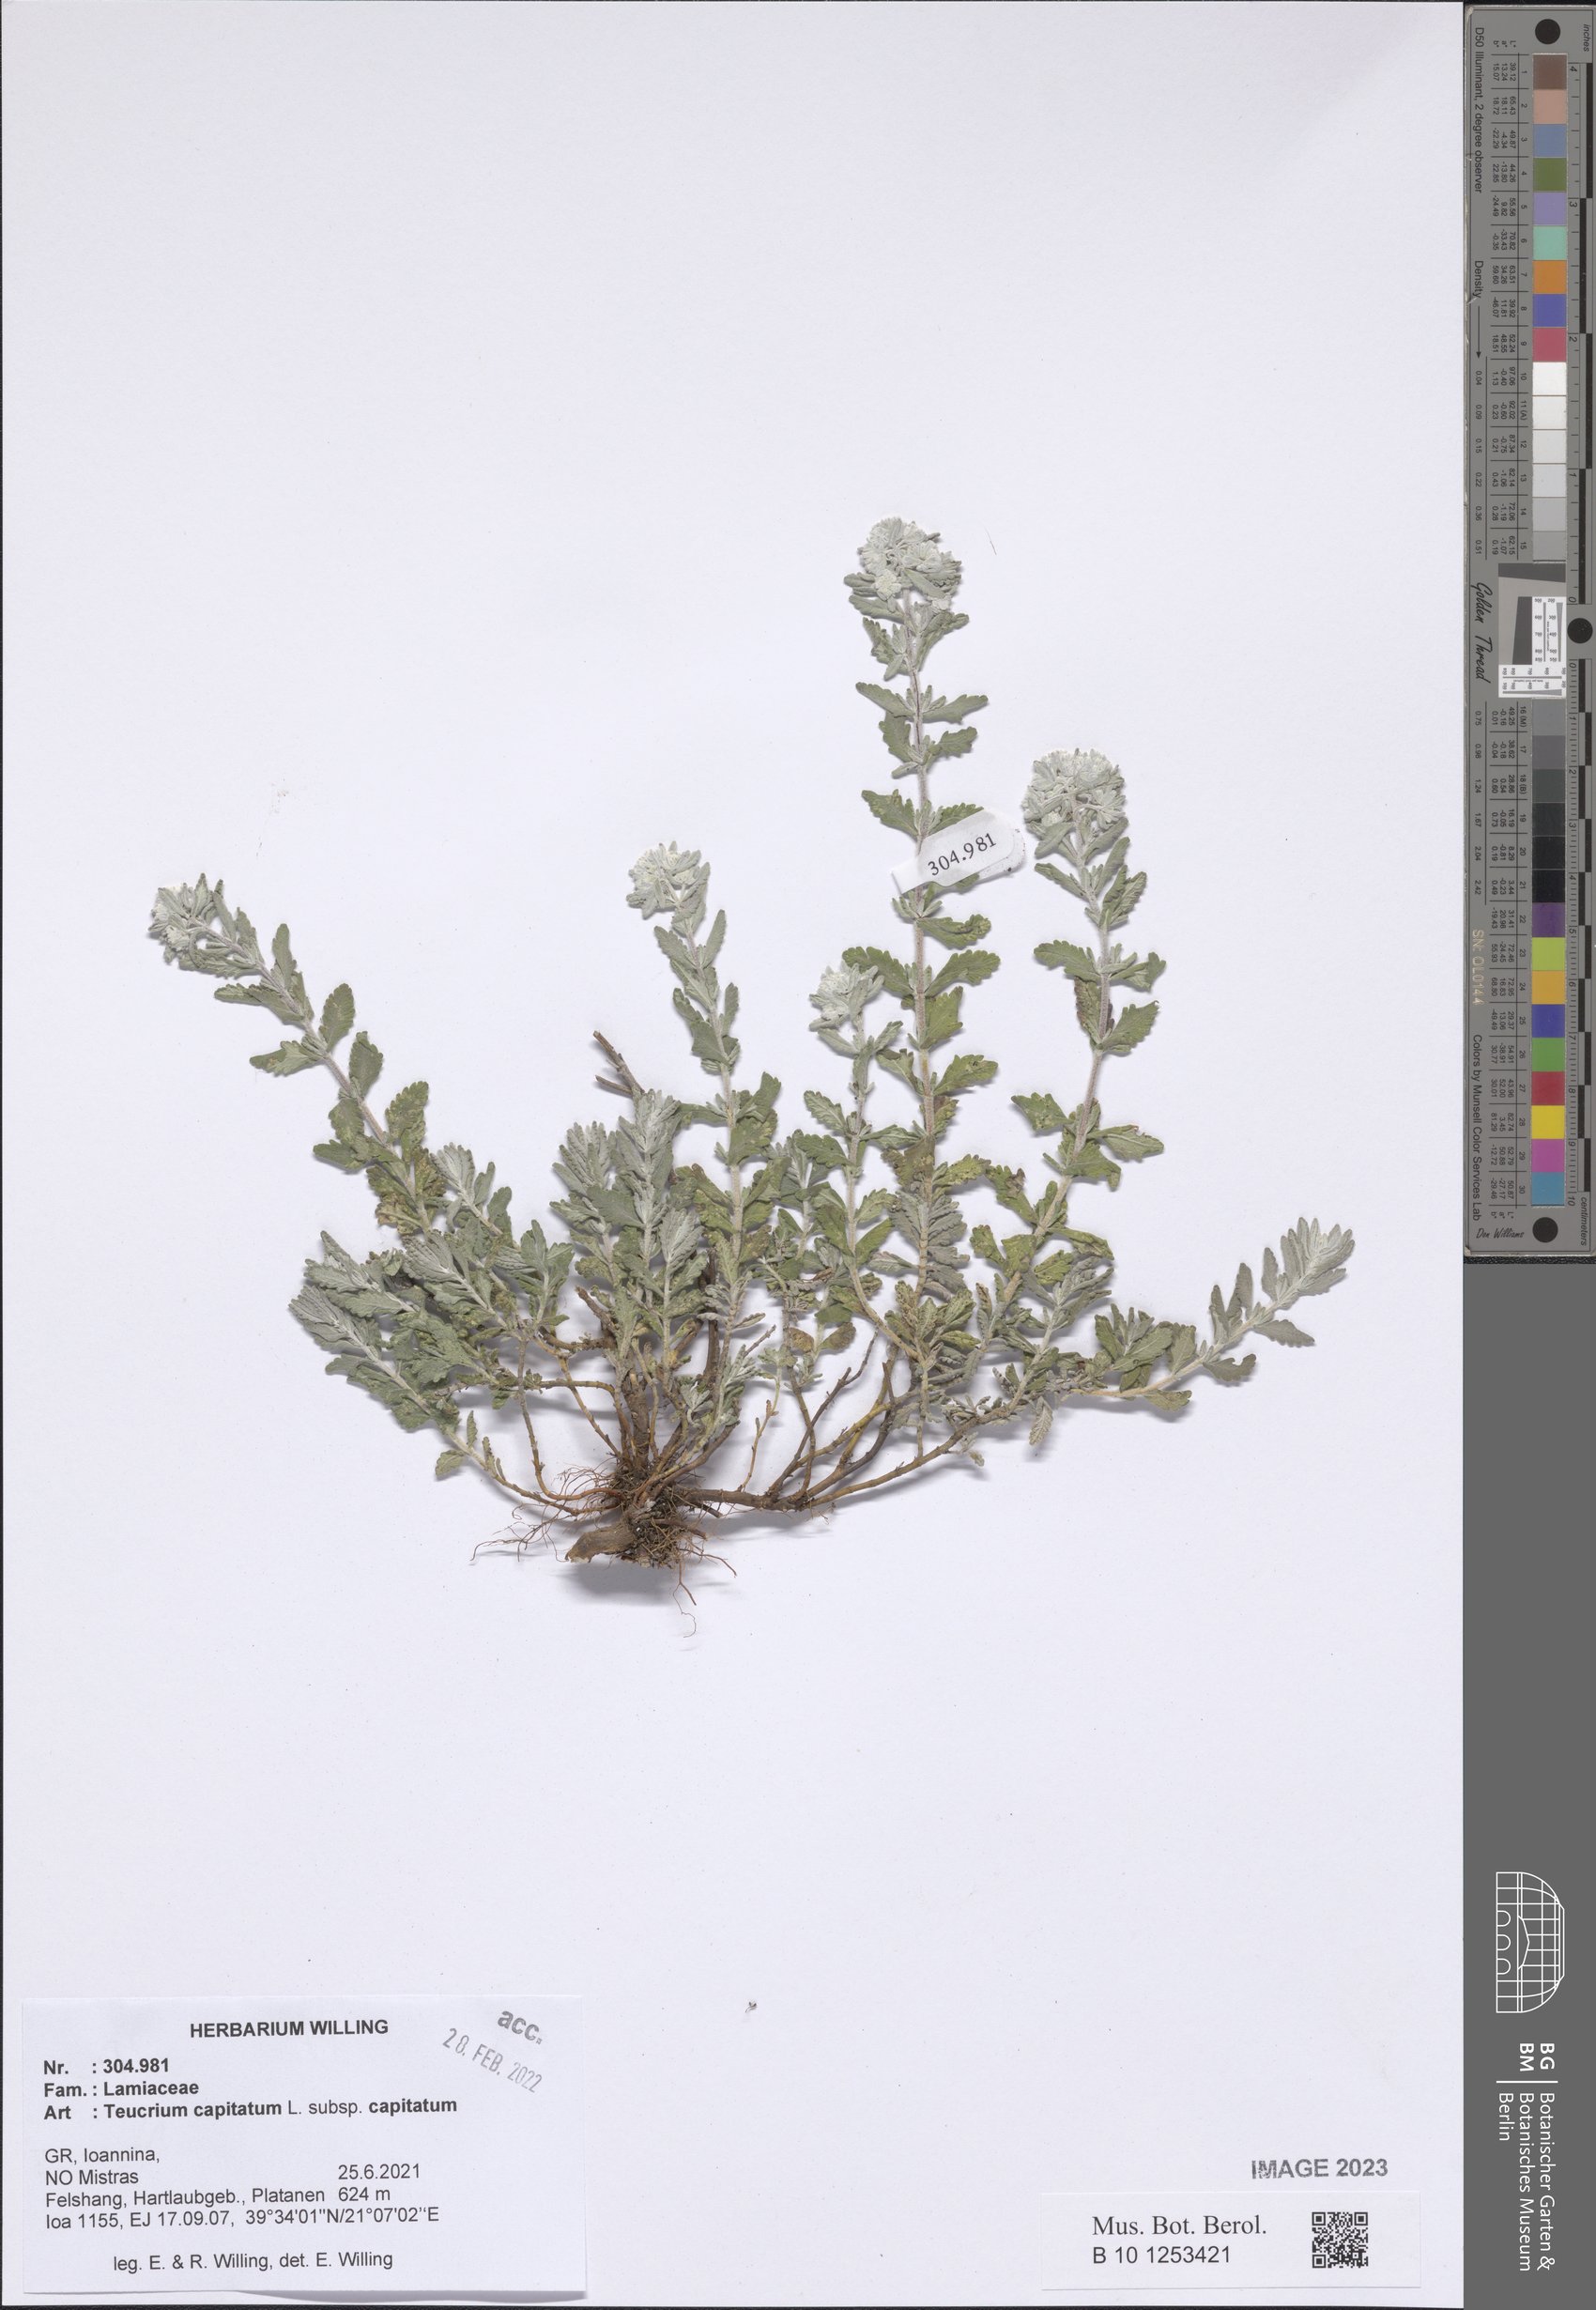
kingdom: Plantae
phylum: Tracheophyta
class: Magnoliopsida
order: Lamiales
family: Lamiaceae
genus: Teucrium
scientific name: Teucrium capitatum
